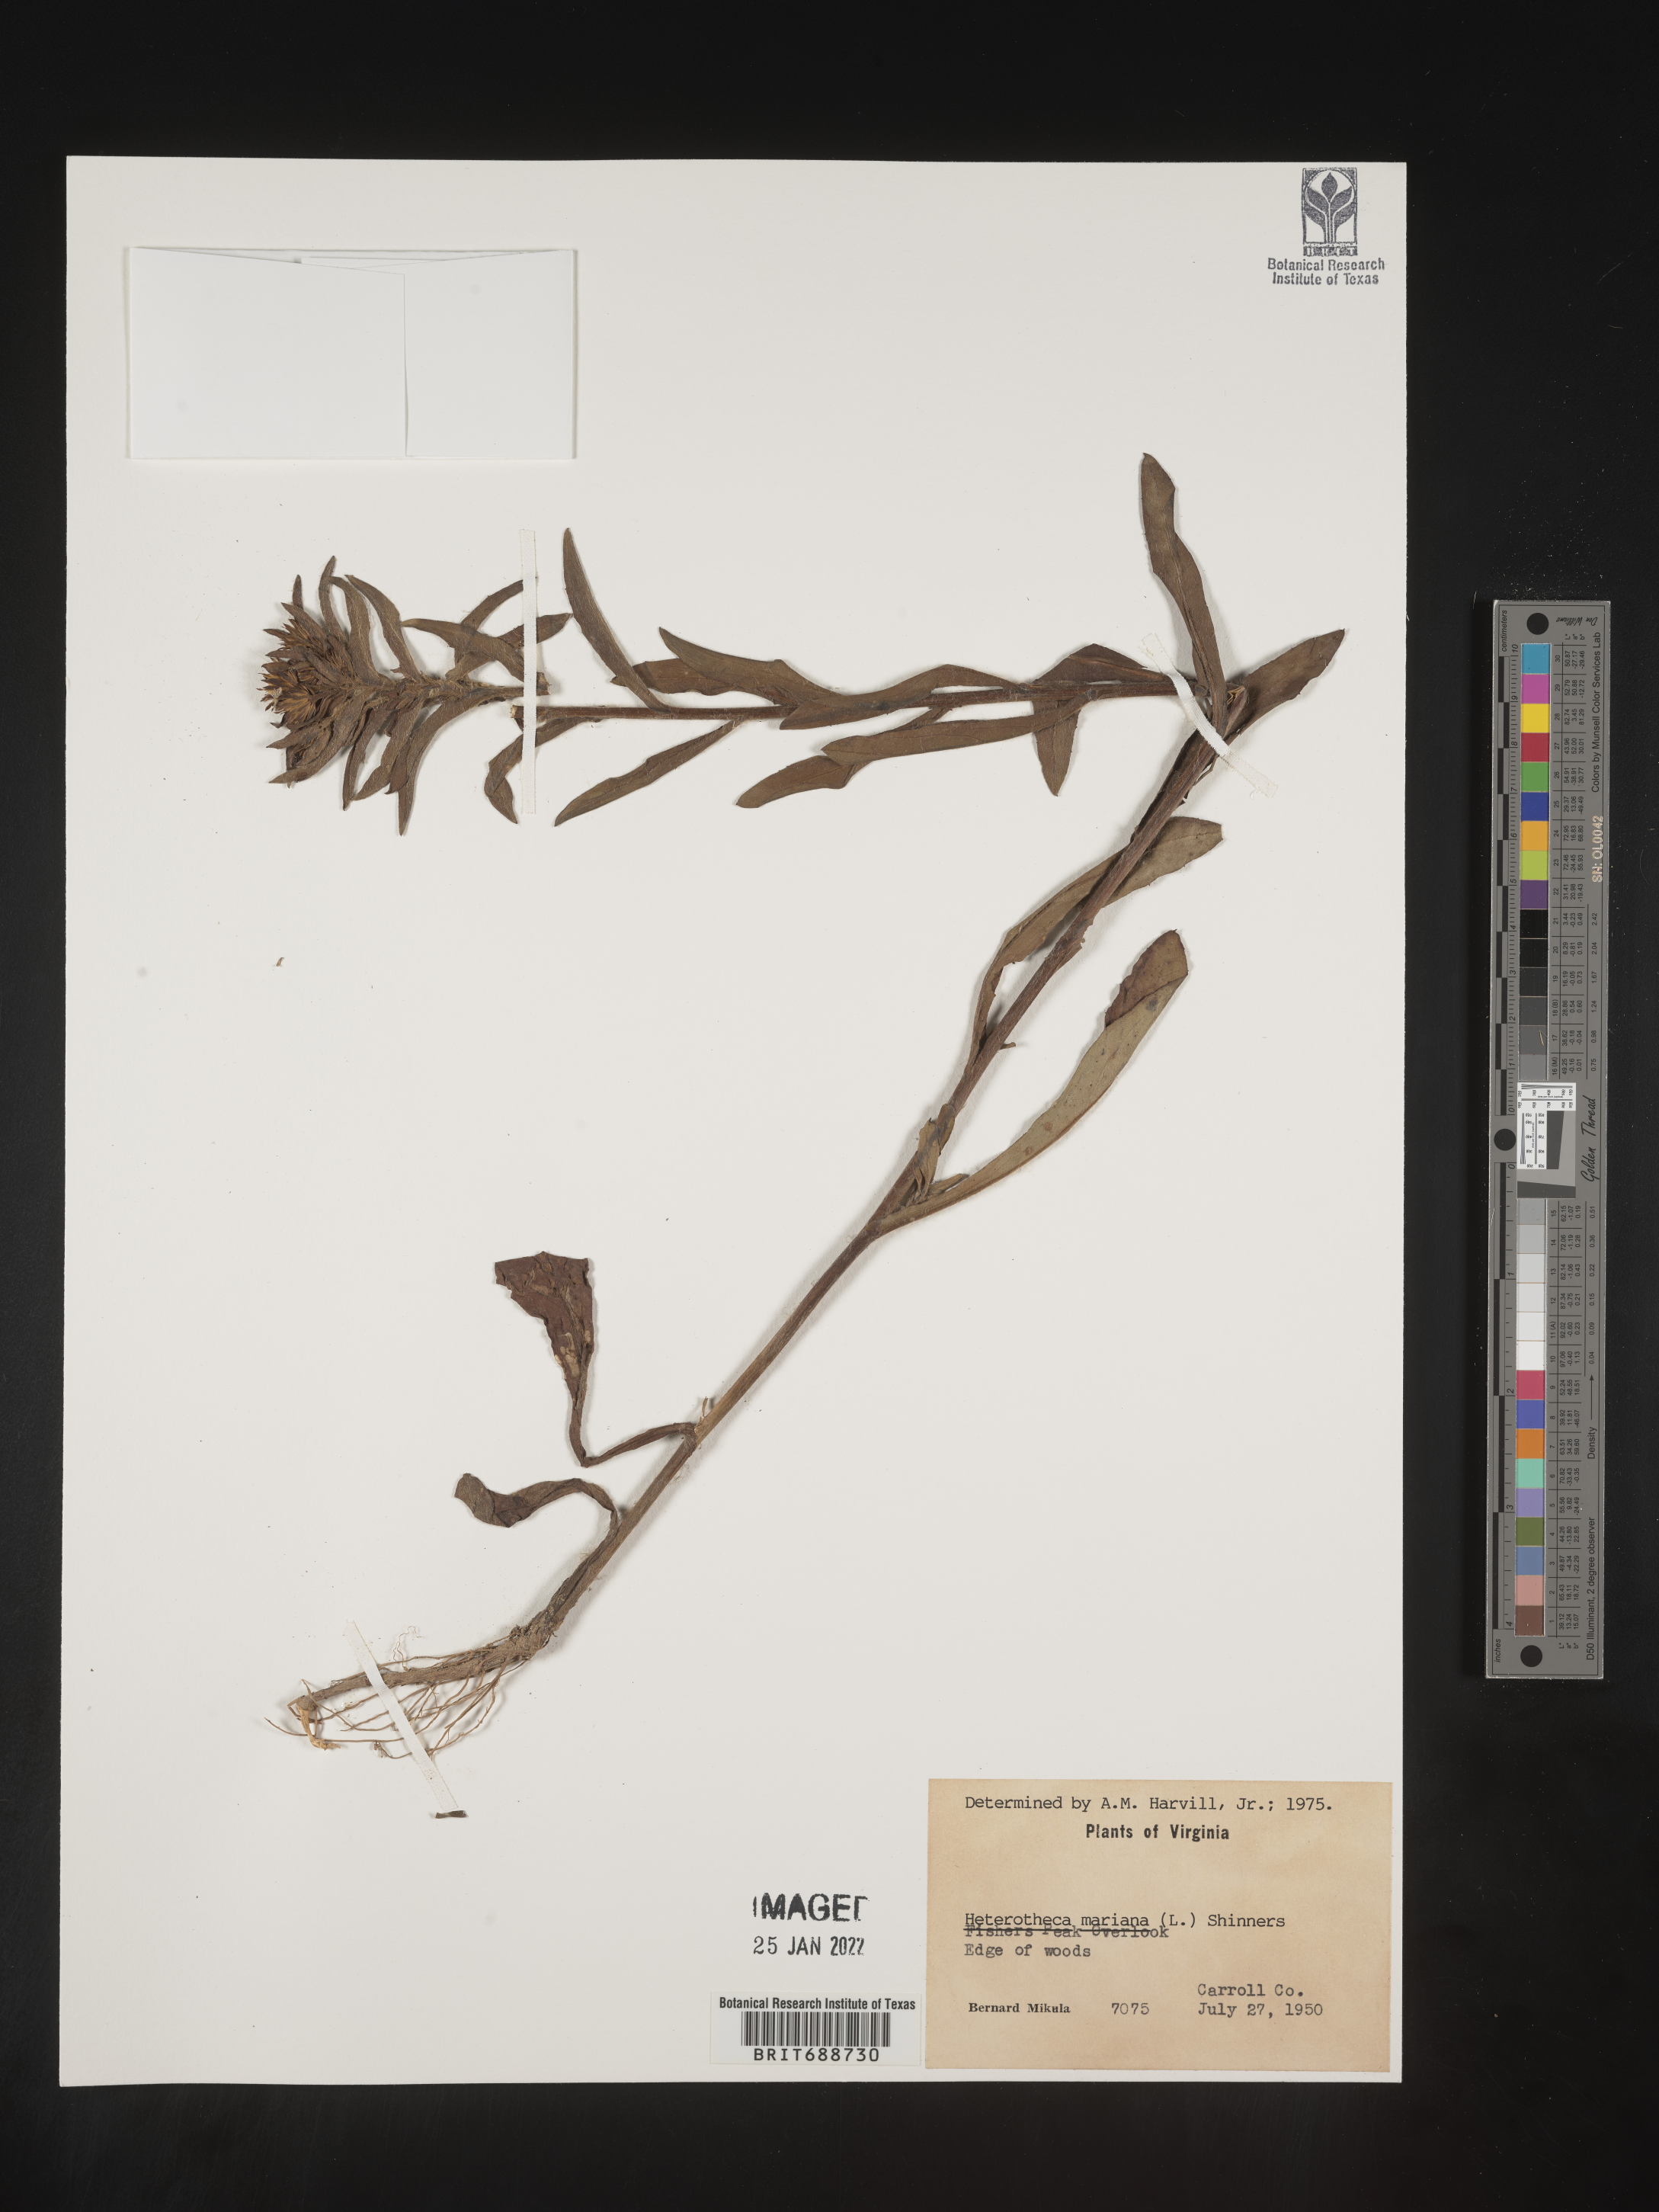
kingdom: Plantae
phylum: Tracheophyta
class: Magnoliopsida
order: Asterales
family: Asteraceae
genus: Chrysopsis
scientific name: Chrysopsis mariana
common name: Maryland golden-aster
